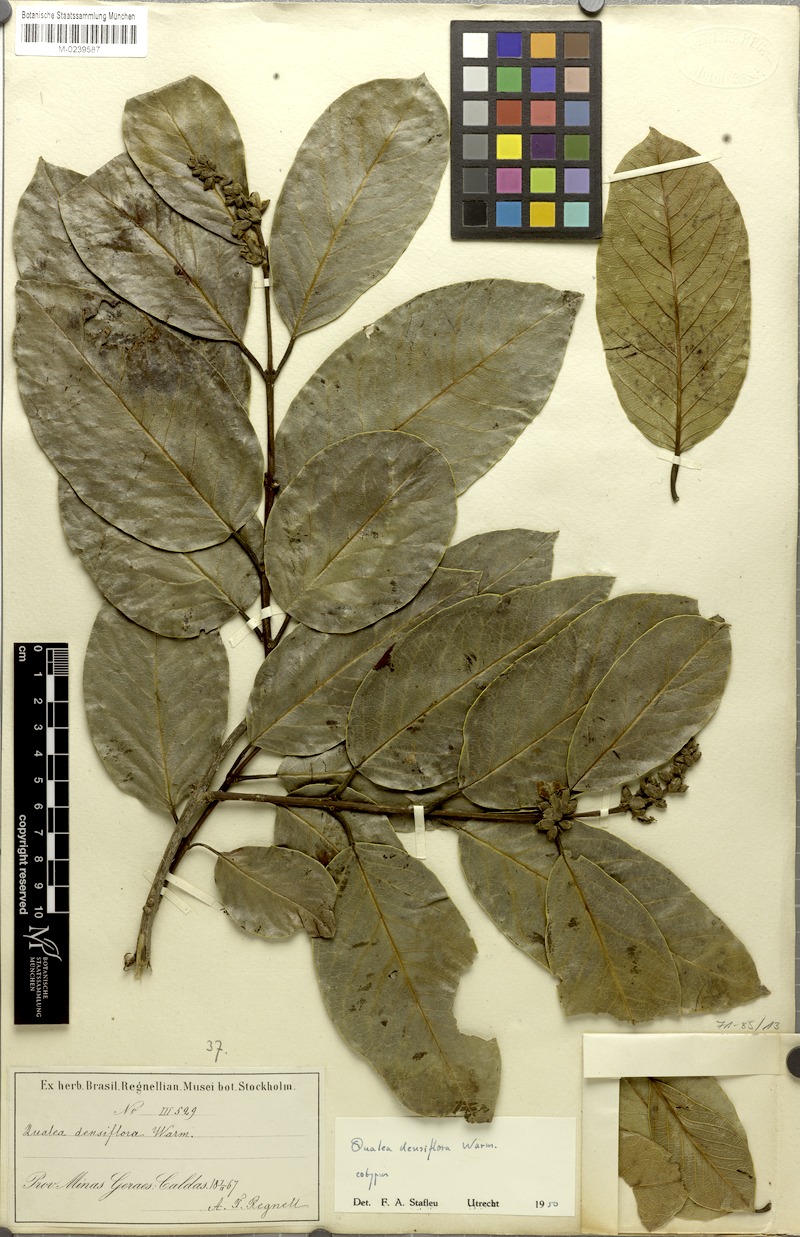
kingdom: Plantae
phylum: Tracheophyta
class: Magnoliopsida
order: Myrtales
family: Vochysiaceae
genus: Qualea
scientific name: Qualea densiflora
